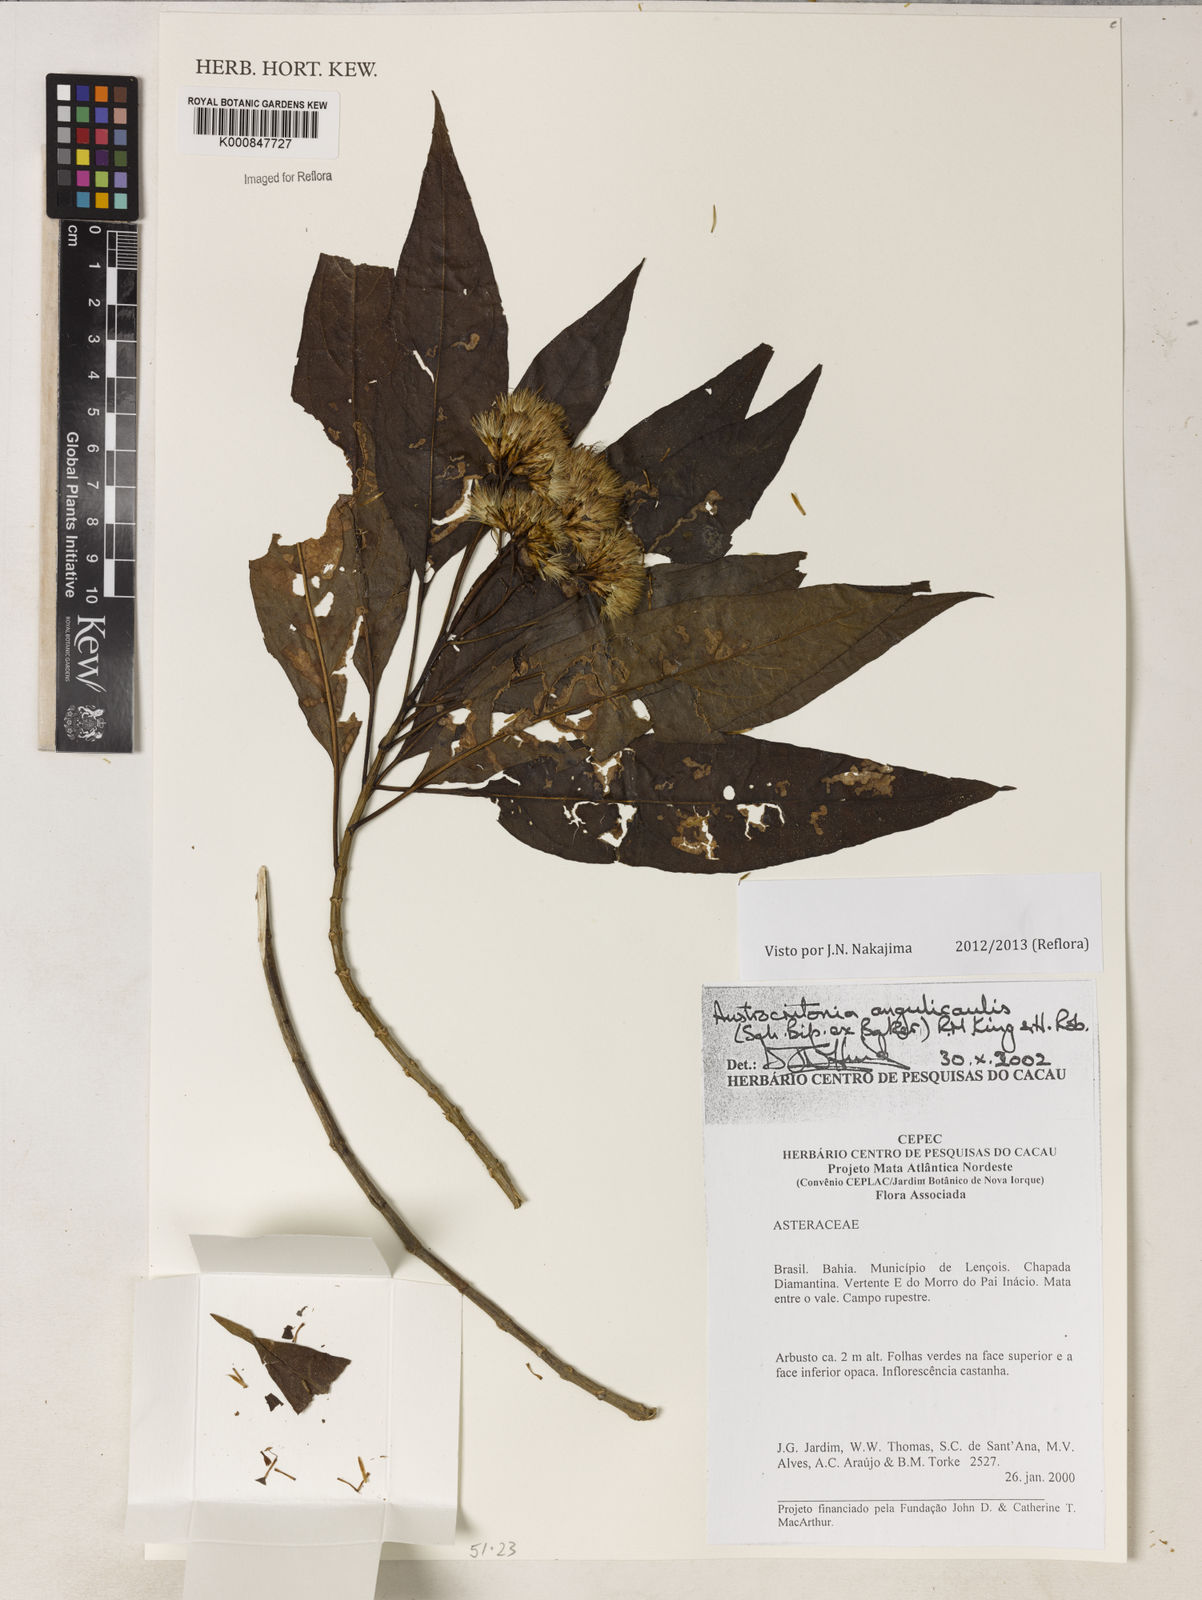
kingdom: Plantae
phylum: Tracheophyta
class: Magnoliopsida
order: Asterales
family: Asteraceae
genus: Austrocritonia
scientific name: Austrocritonia angulicaulis
